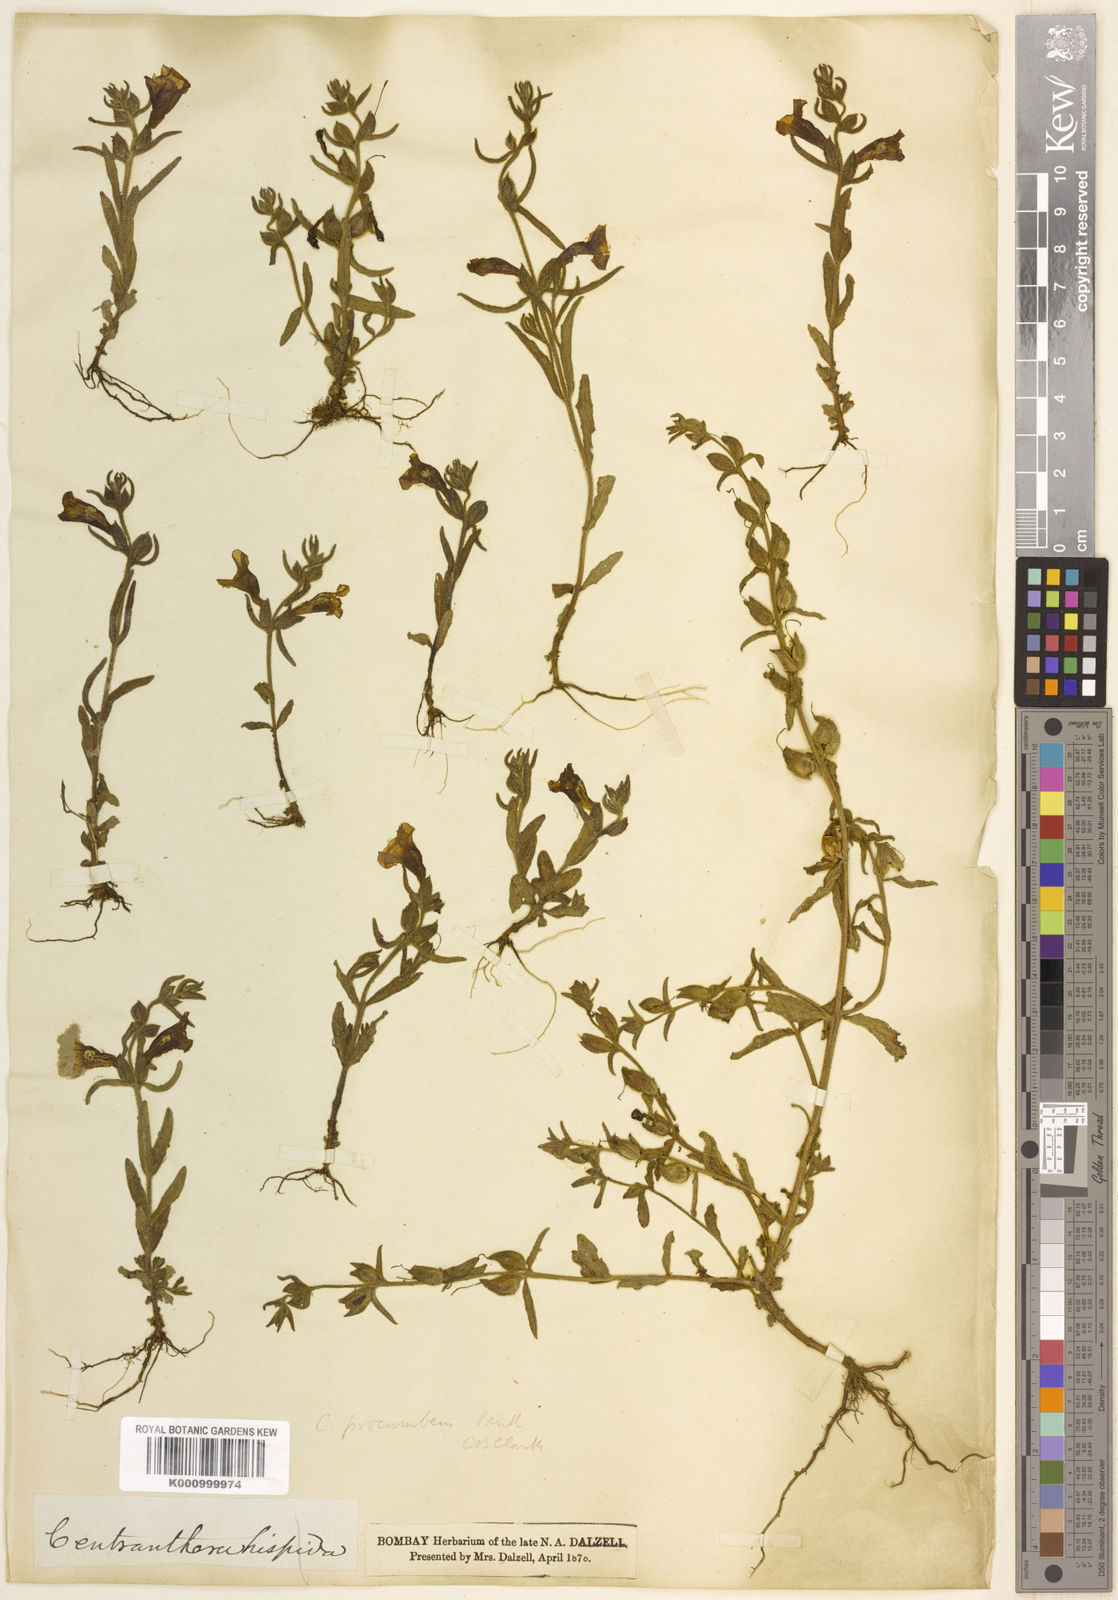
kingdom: Plantae
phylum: Tracheophyta
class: Magnoliopsida
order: Lamiales
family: Orobanchaceae
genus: Centranthera
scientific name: Centranthera indica
